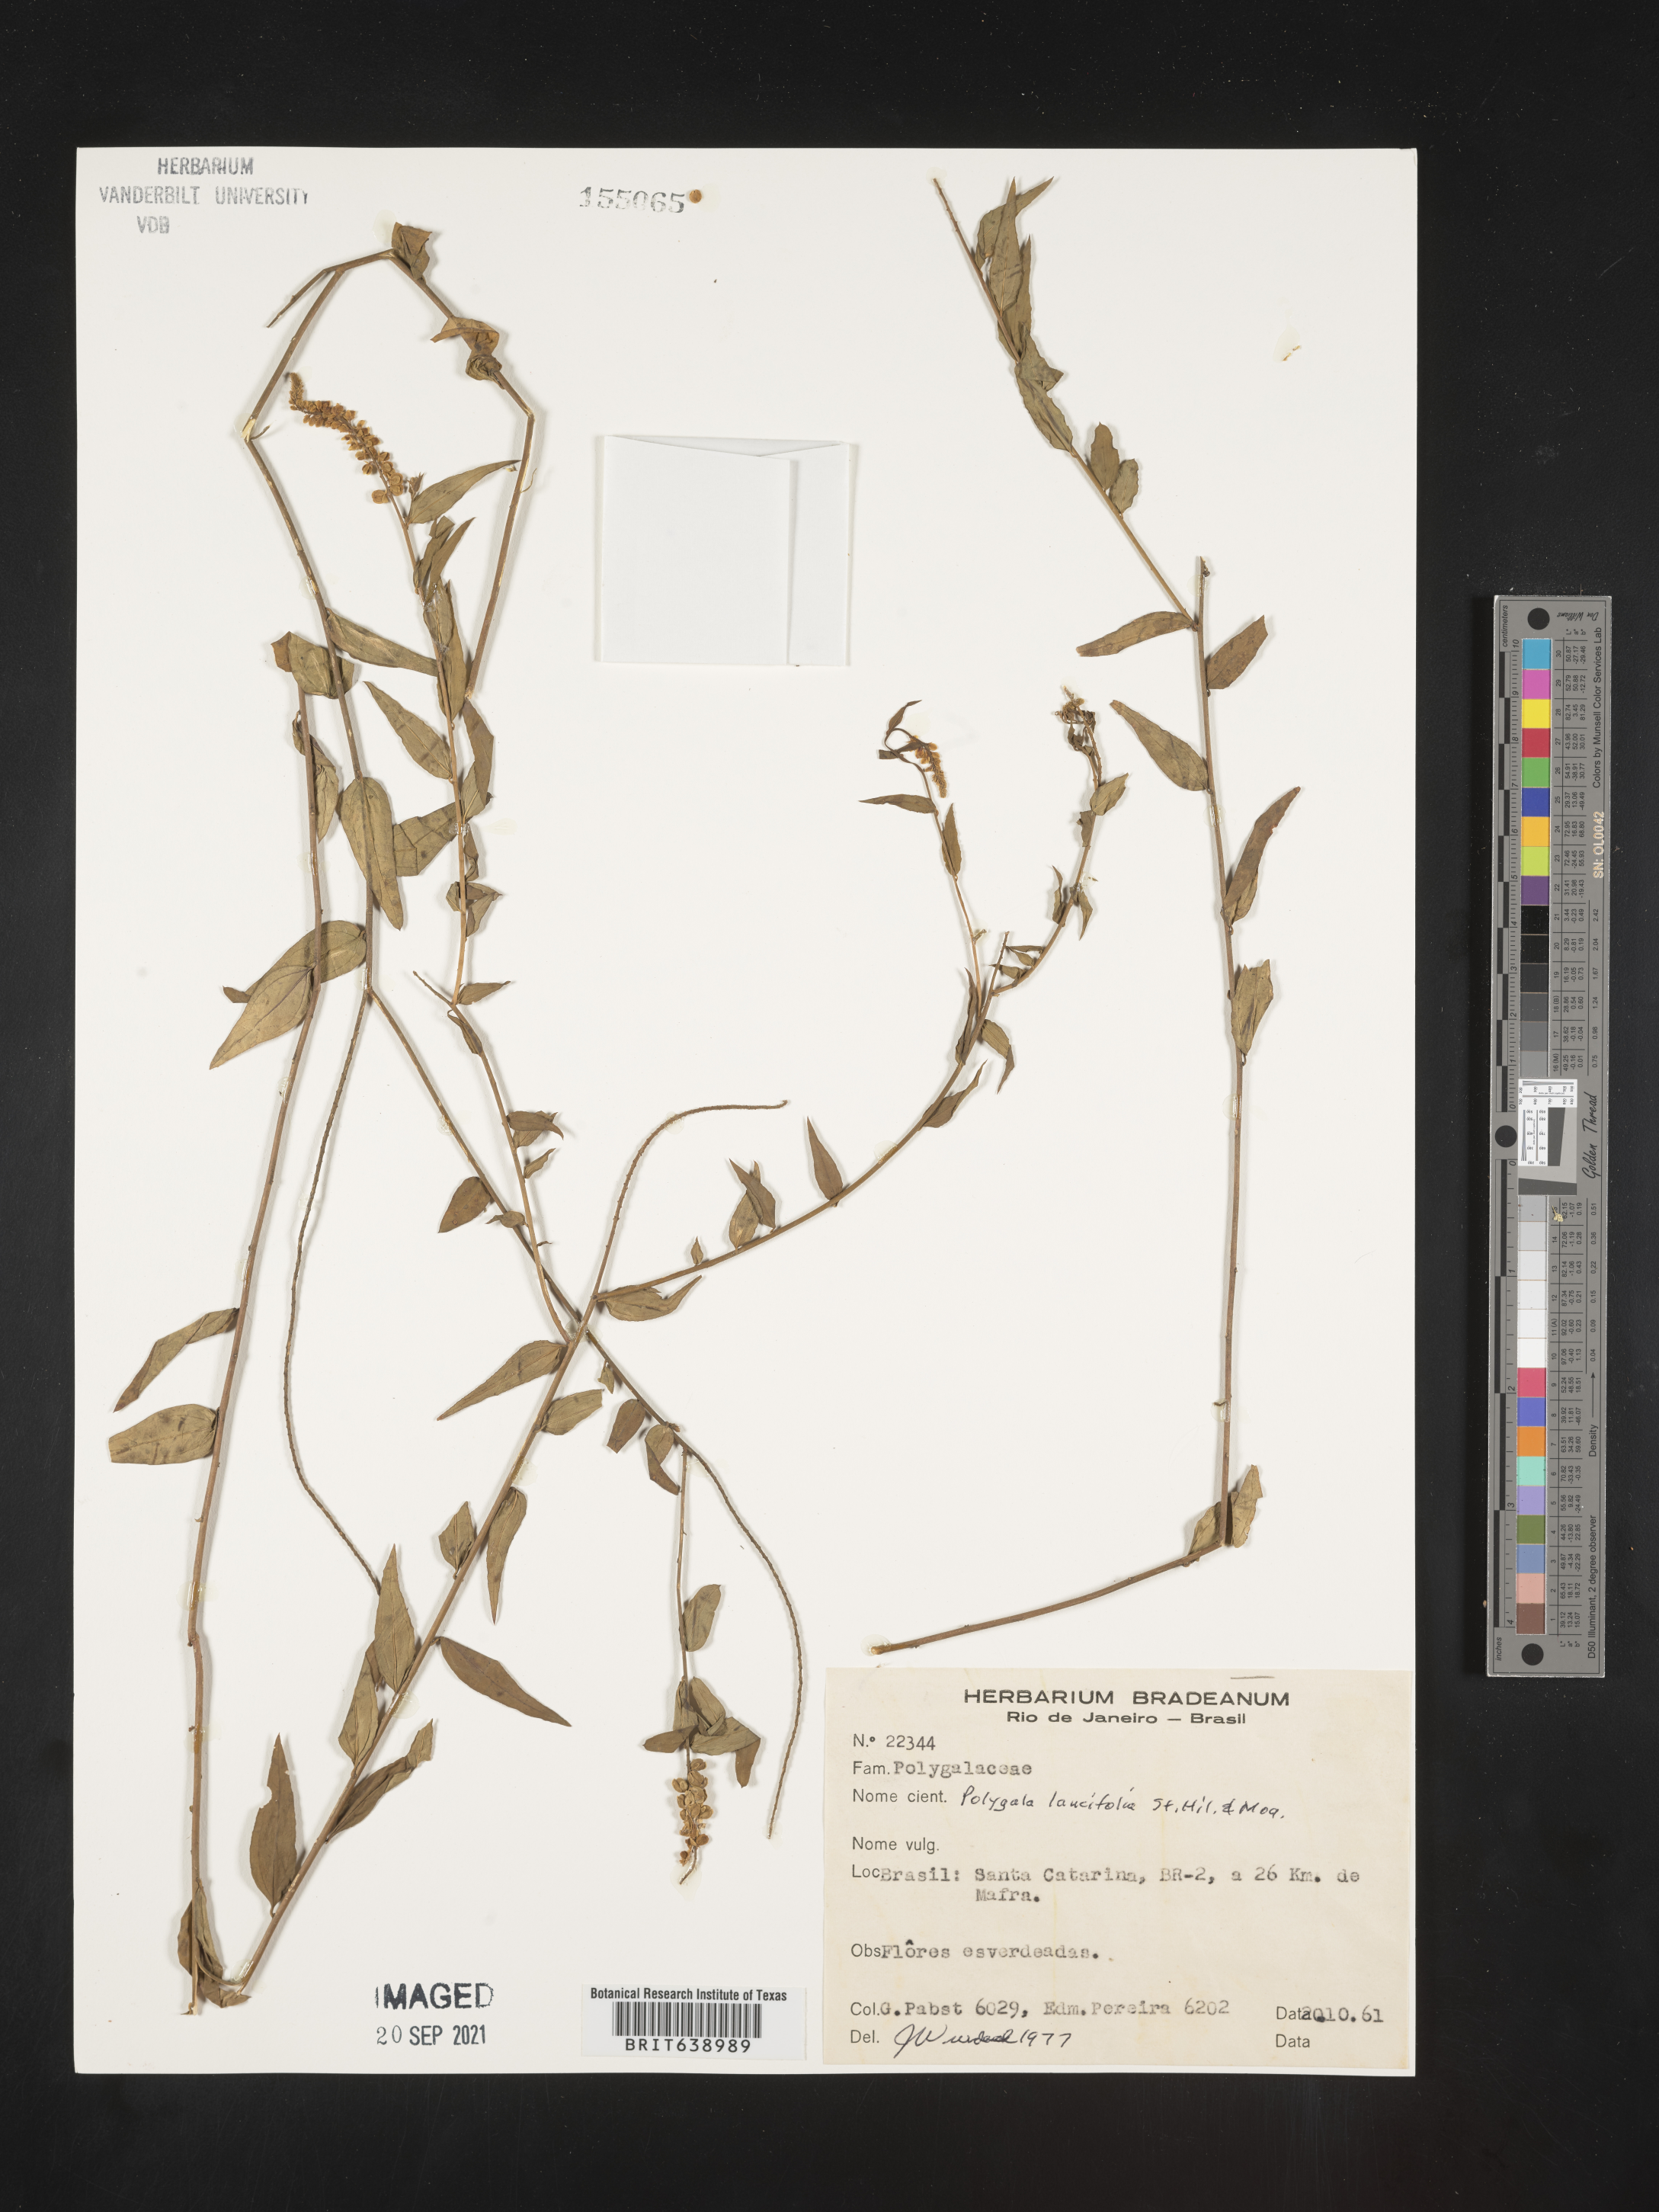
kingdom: Plantae
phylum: Tracheophyta
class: Magnoliopsida
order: Fabales
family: Polygalaceae
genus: Polygala
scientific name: Polygala
